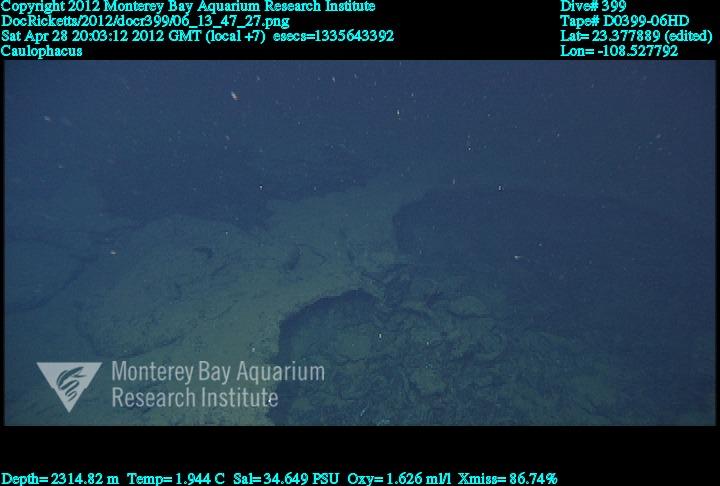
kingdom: Animalia
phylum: Porifera
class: Hexactinellida
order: Lyssacinosida
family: Rossellidae
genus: Caulophacus
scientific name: Caulophacus
